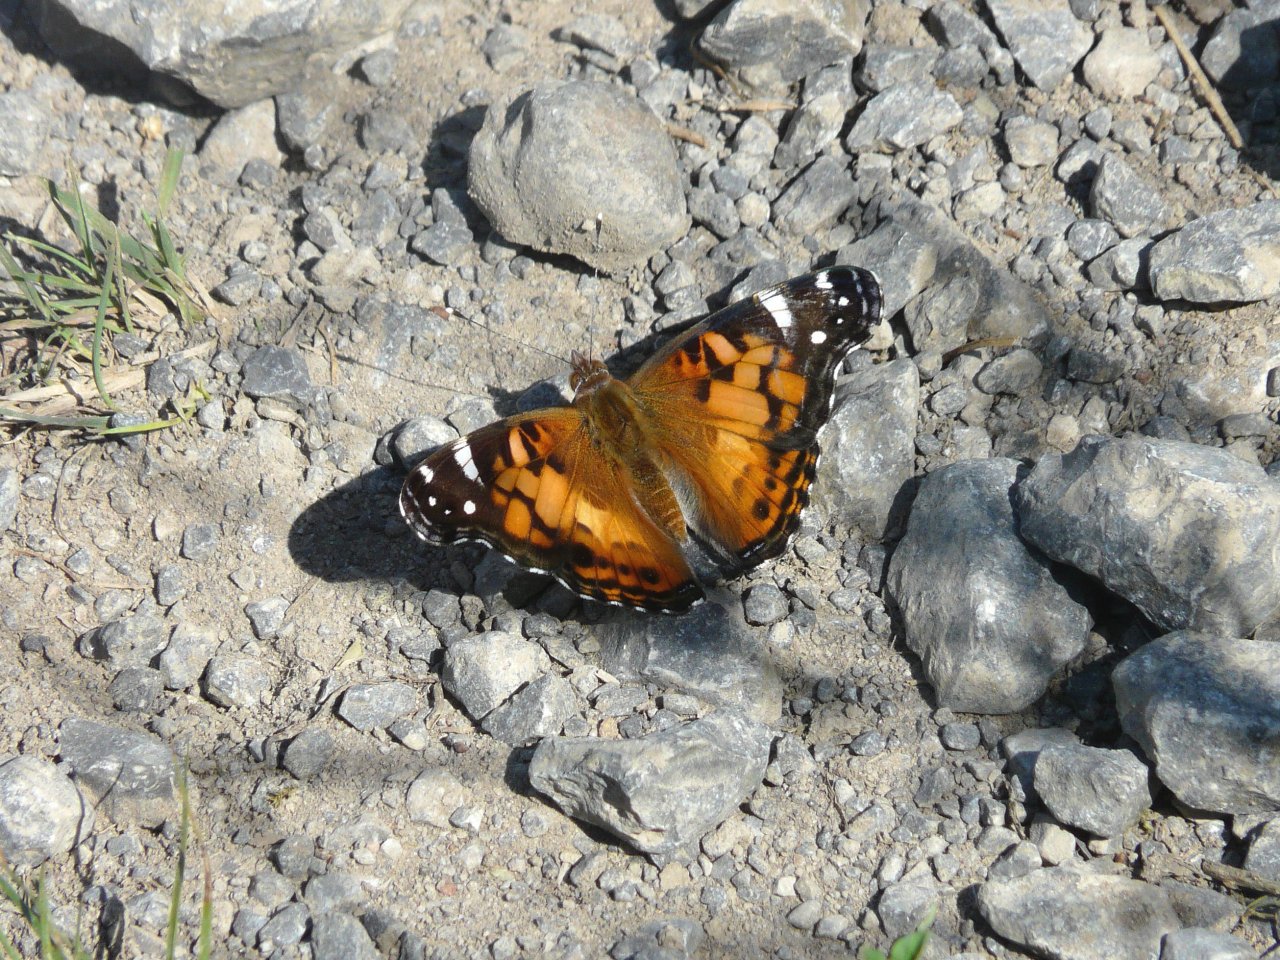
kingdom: Animalia
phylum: Arthropoda
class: Insecta
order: Lepidoptera
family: Nymphalidae
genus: Vanessa
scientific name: Vanessa virginiensis
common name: American Lady
